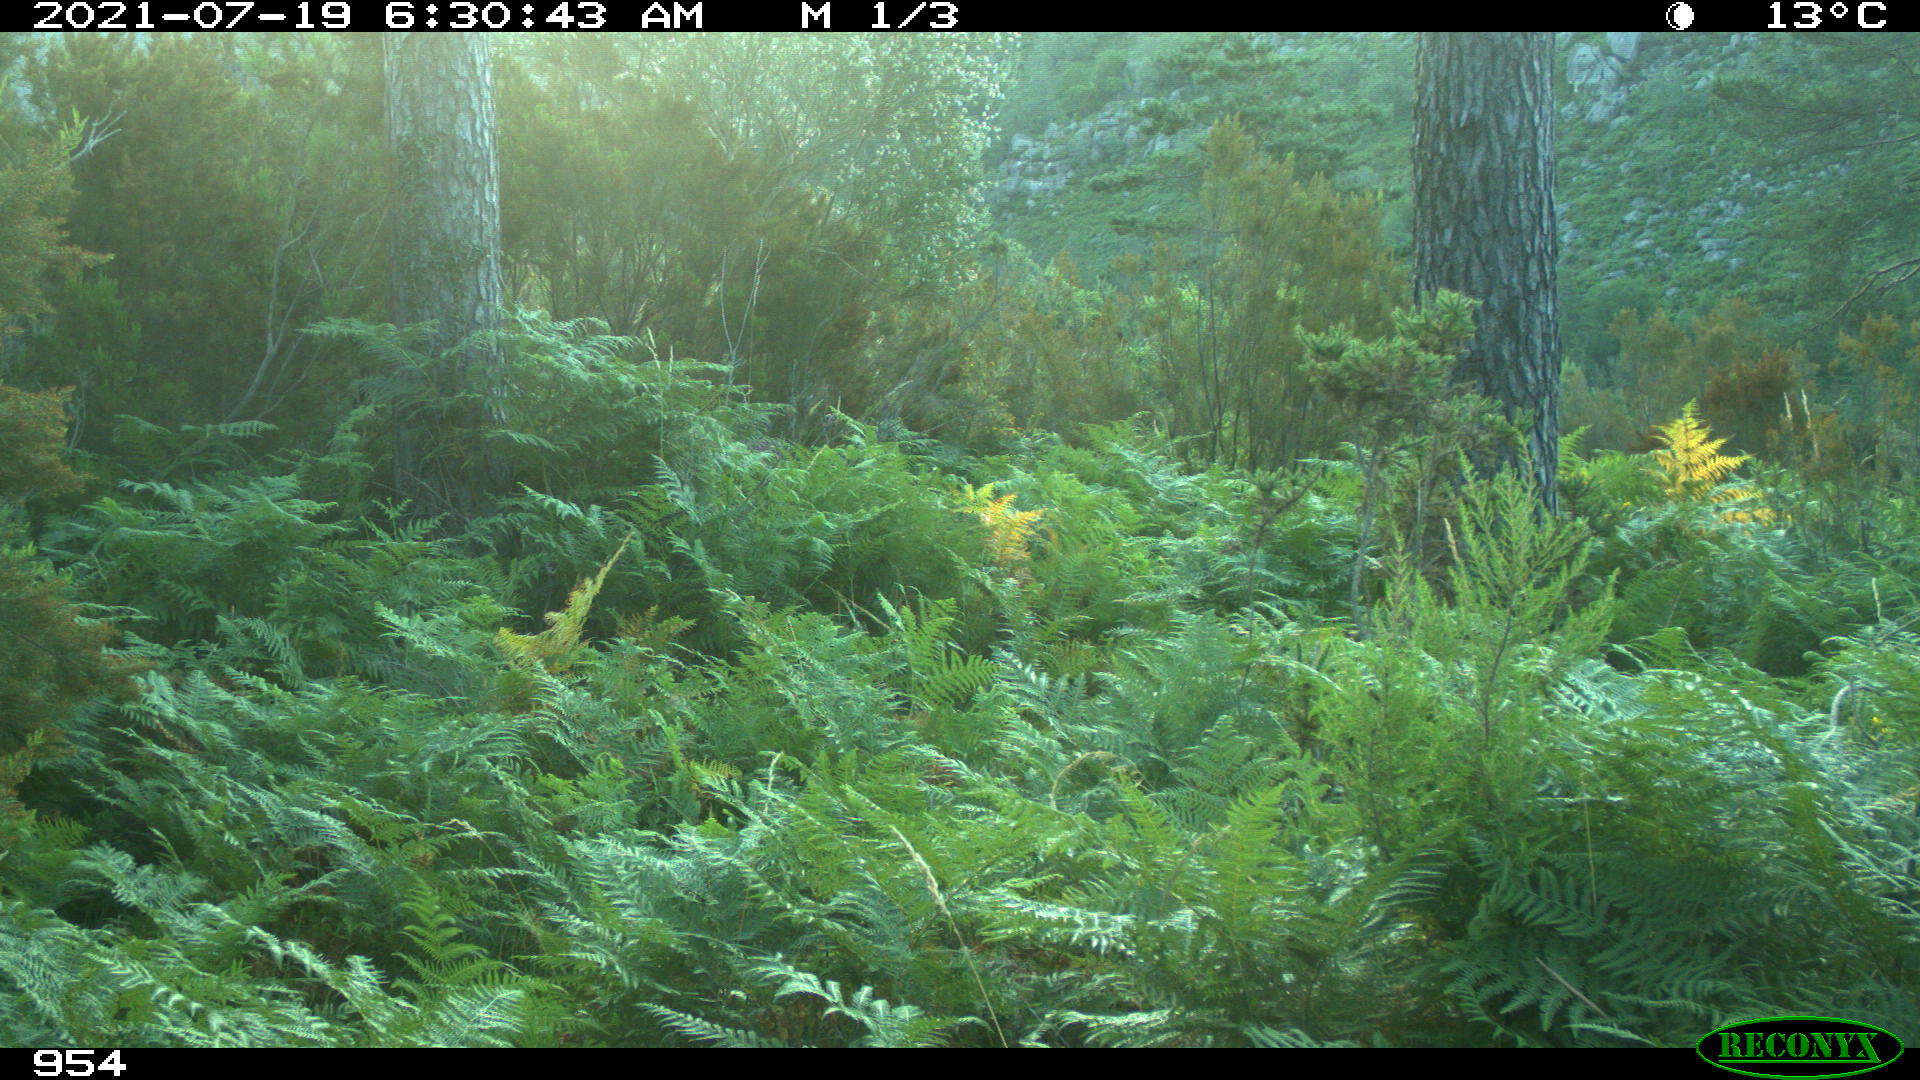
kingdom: Animalia
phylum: Chordata
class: Mammalia
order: Artiodactyla
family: Suidae
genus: Sus
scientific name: Sus scrofa
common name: Wild boar
